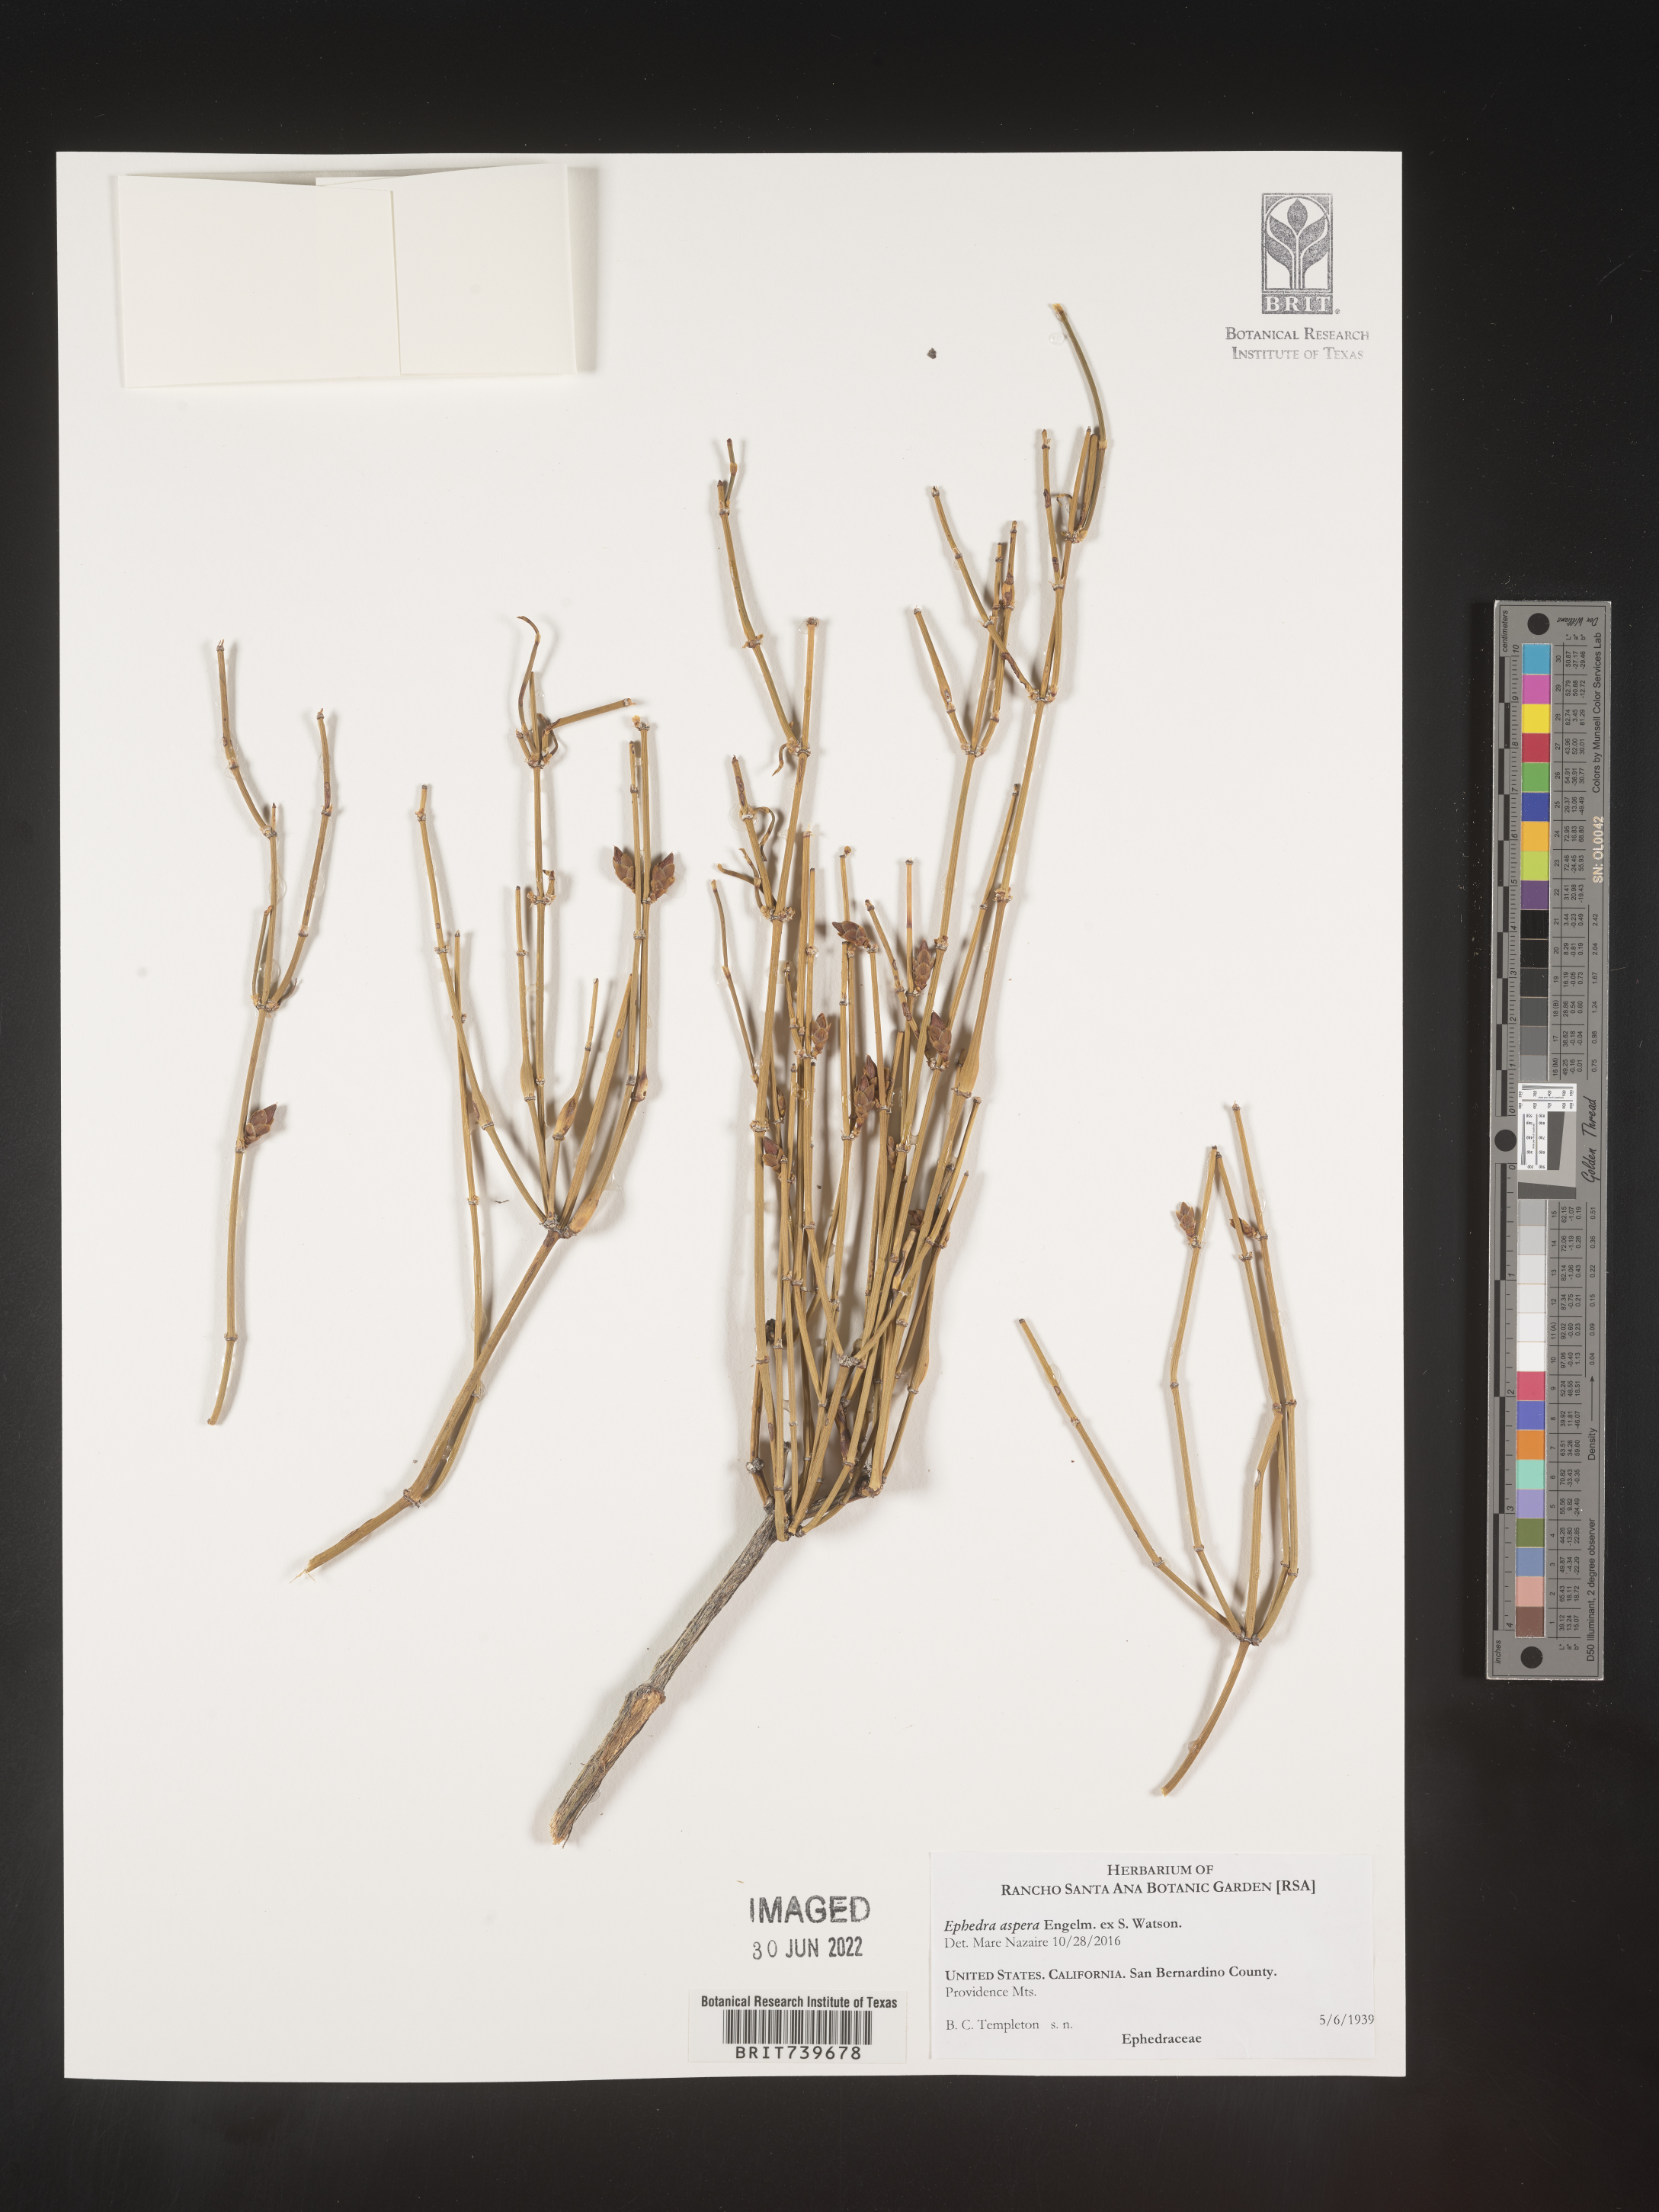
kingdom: Plantae
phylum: Tracheophyta
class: Gnetopsida
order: Ephedrales
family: Ephedraceae
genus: Ephedra
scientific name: Ephedra
